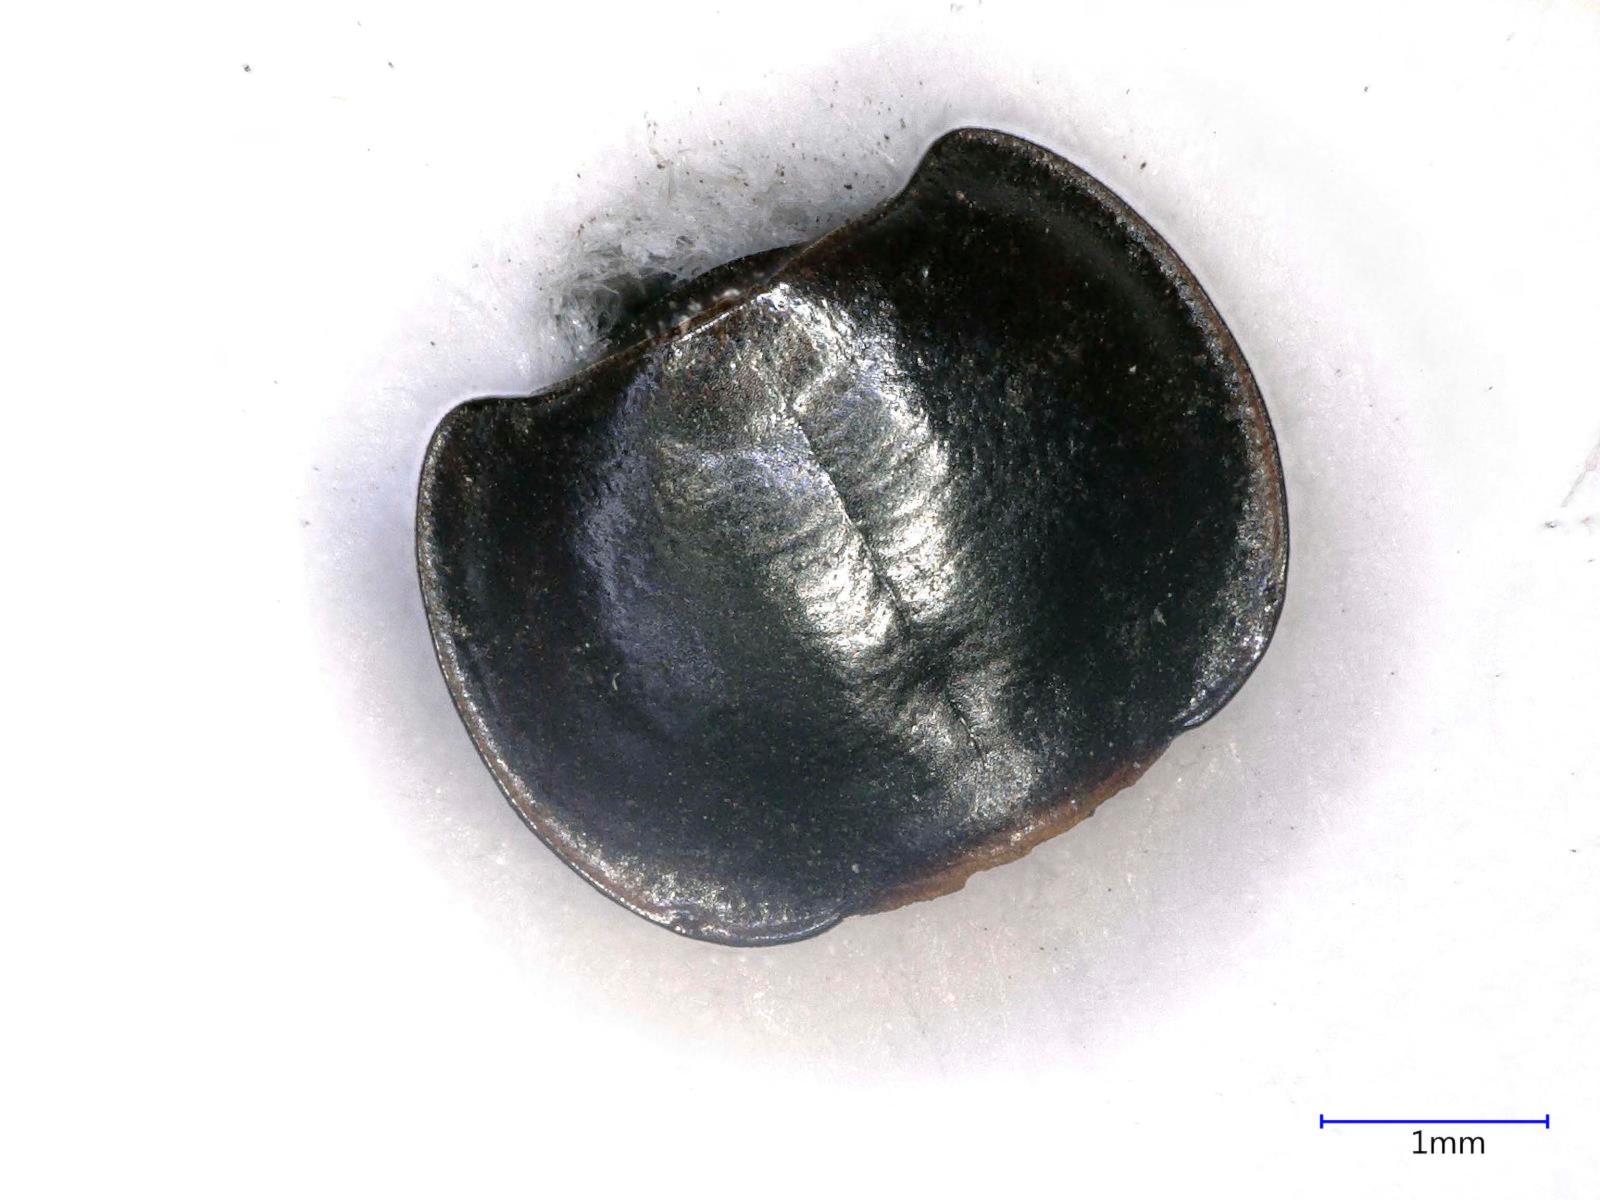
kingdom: Animalia
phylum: Arthropoda
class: Insecta
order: Coleoptera
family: Carabidae
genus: Tanystoma
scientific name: Tanystoma maculicolle
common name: Tule beetle
